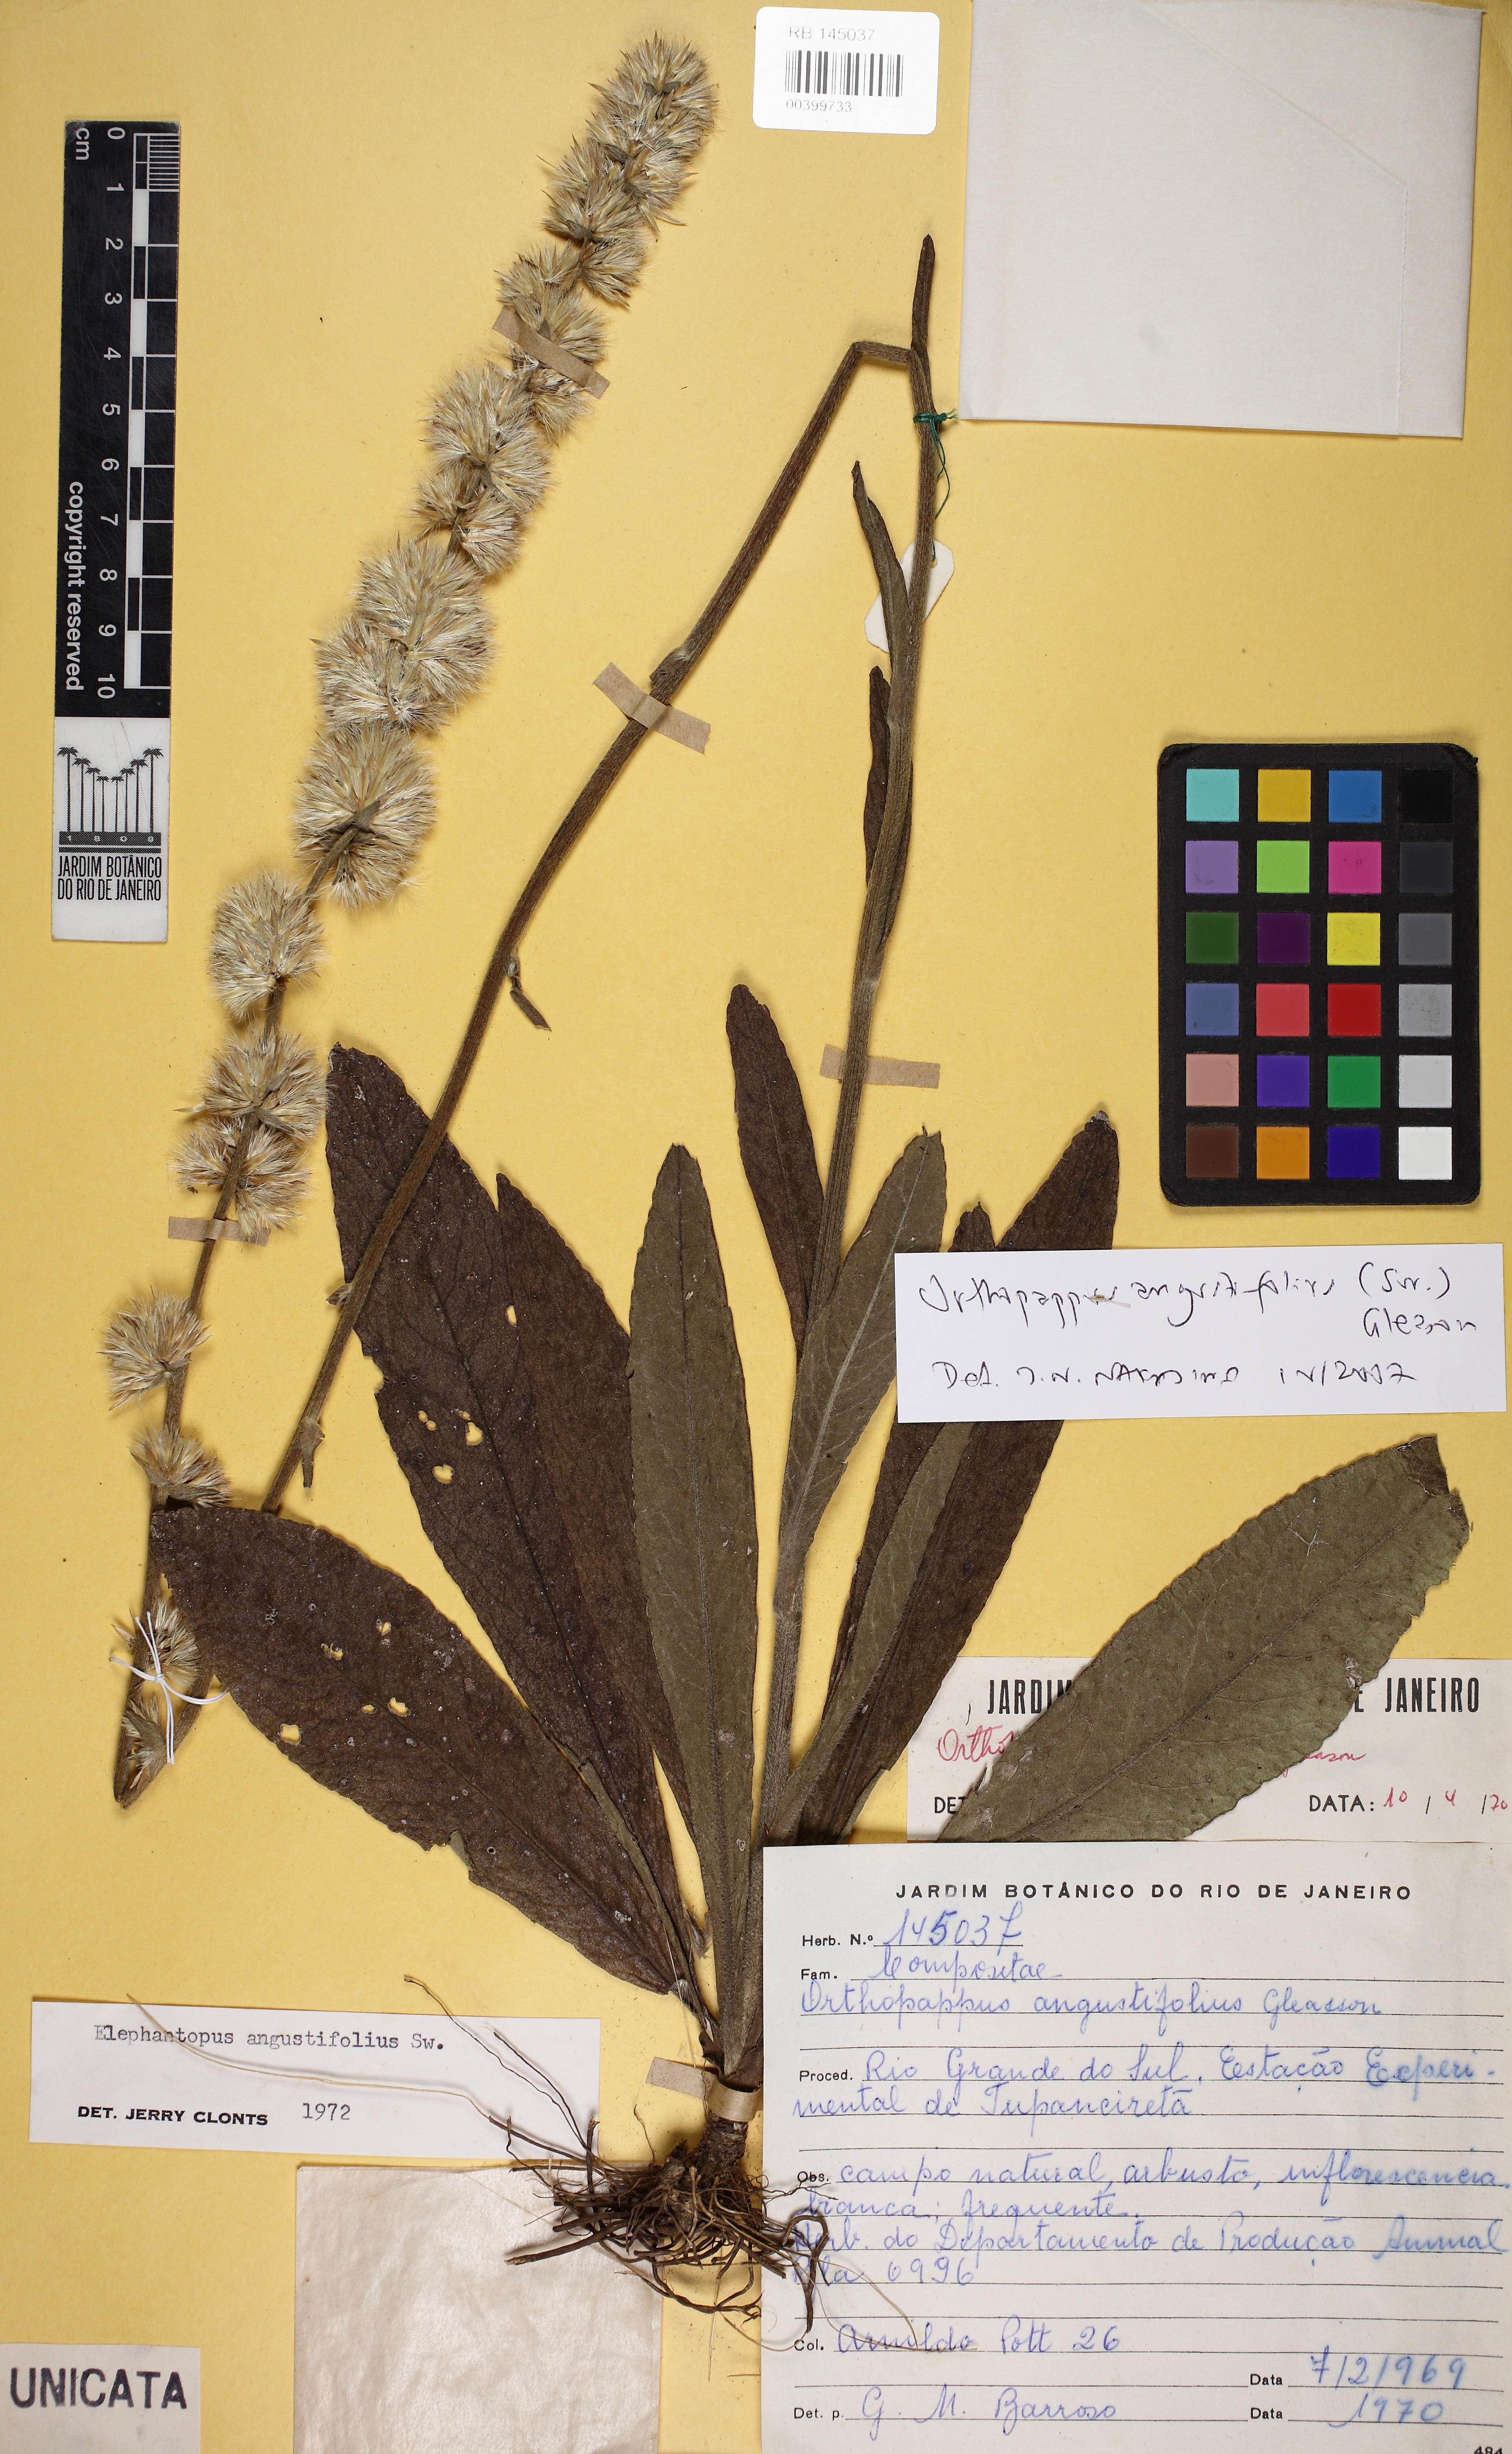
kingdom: Plantae
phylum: Tracheophyta
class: Magnoliopsida
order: Asterales
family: Asteraceae
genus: Orthopappus
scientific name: Orthopappus angustifolius
